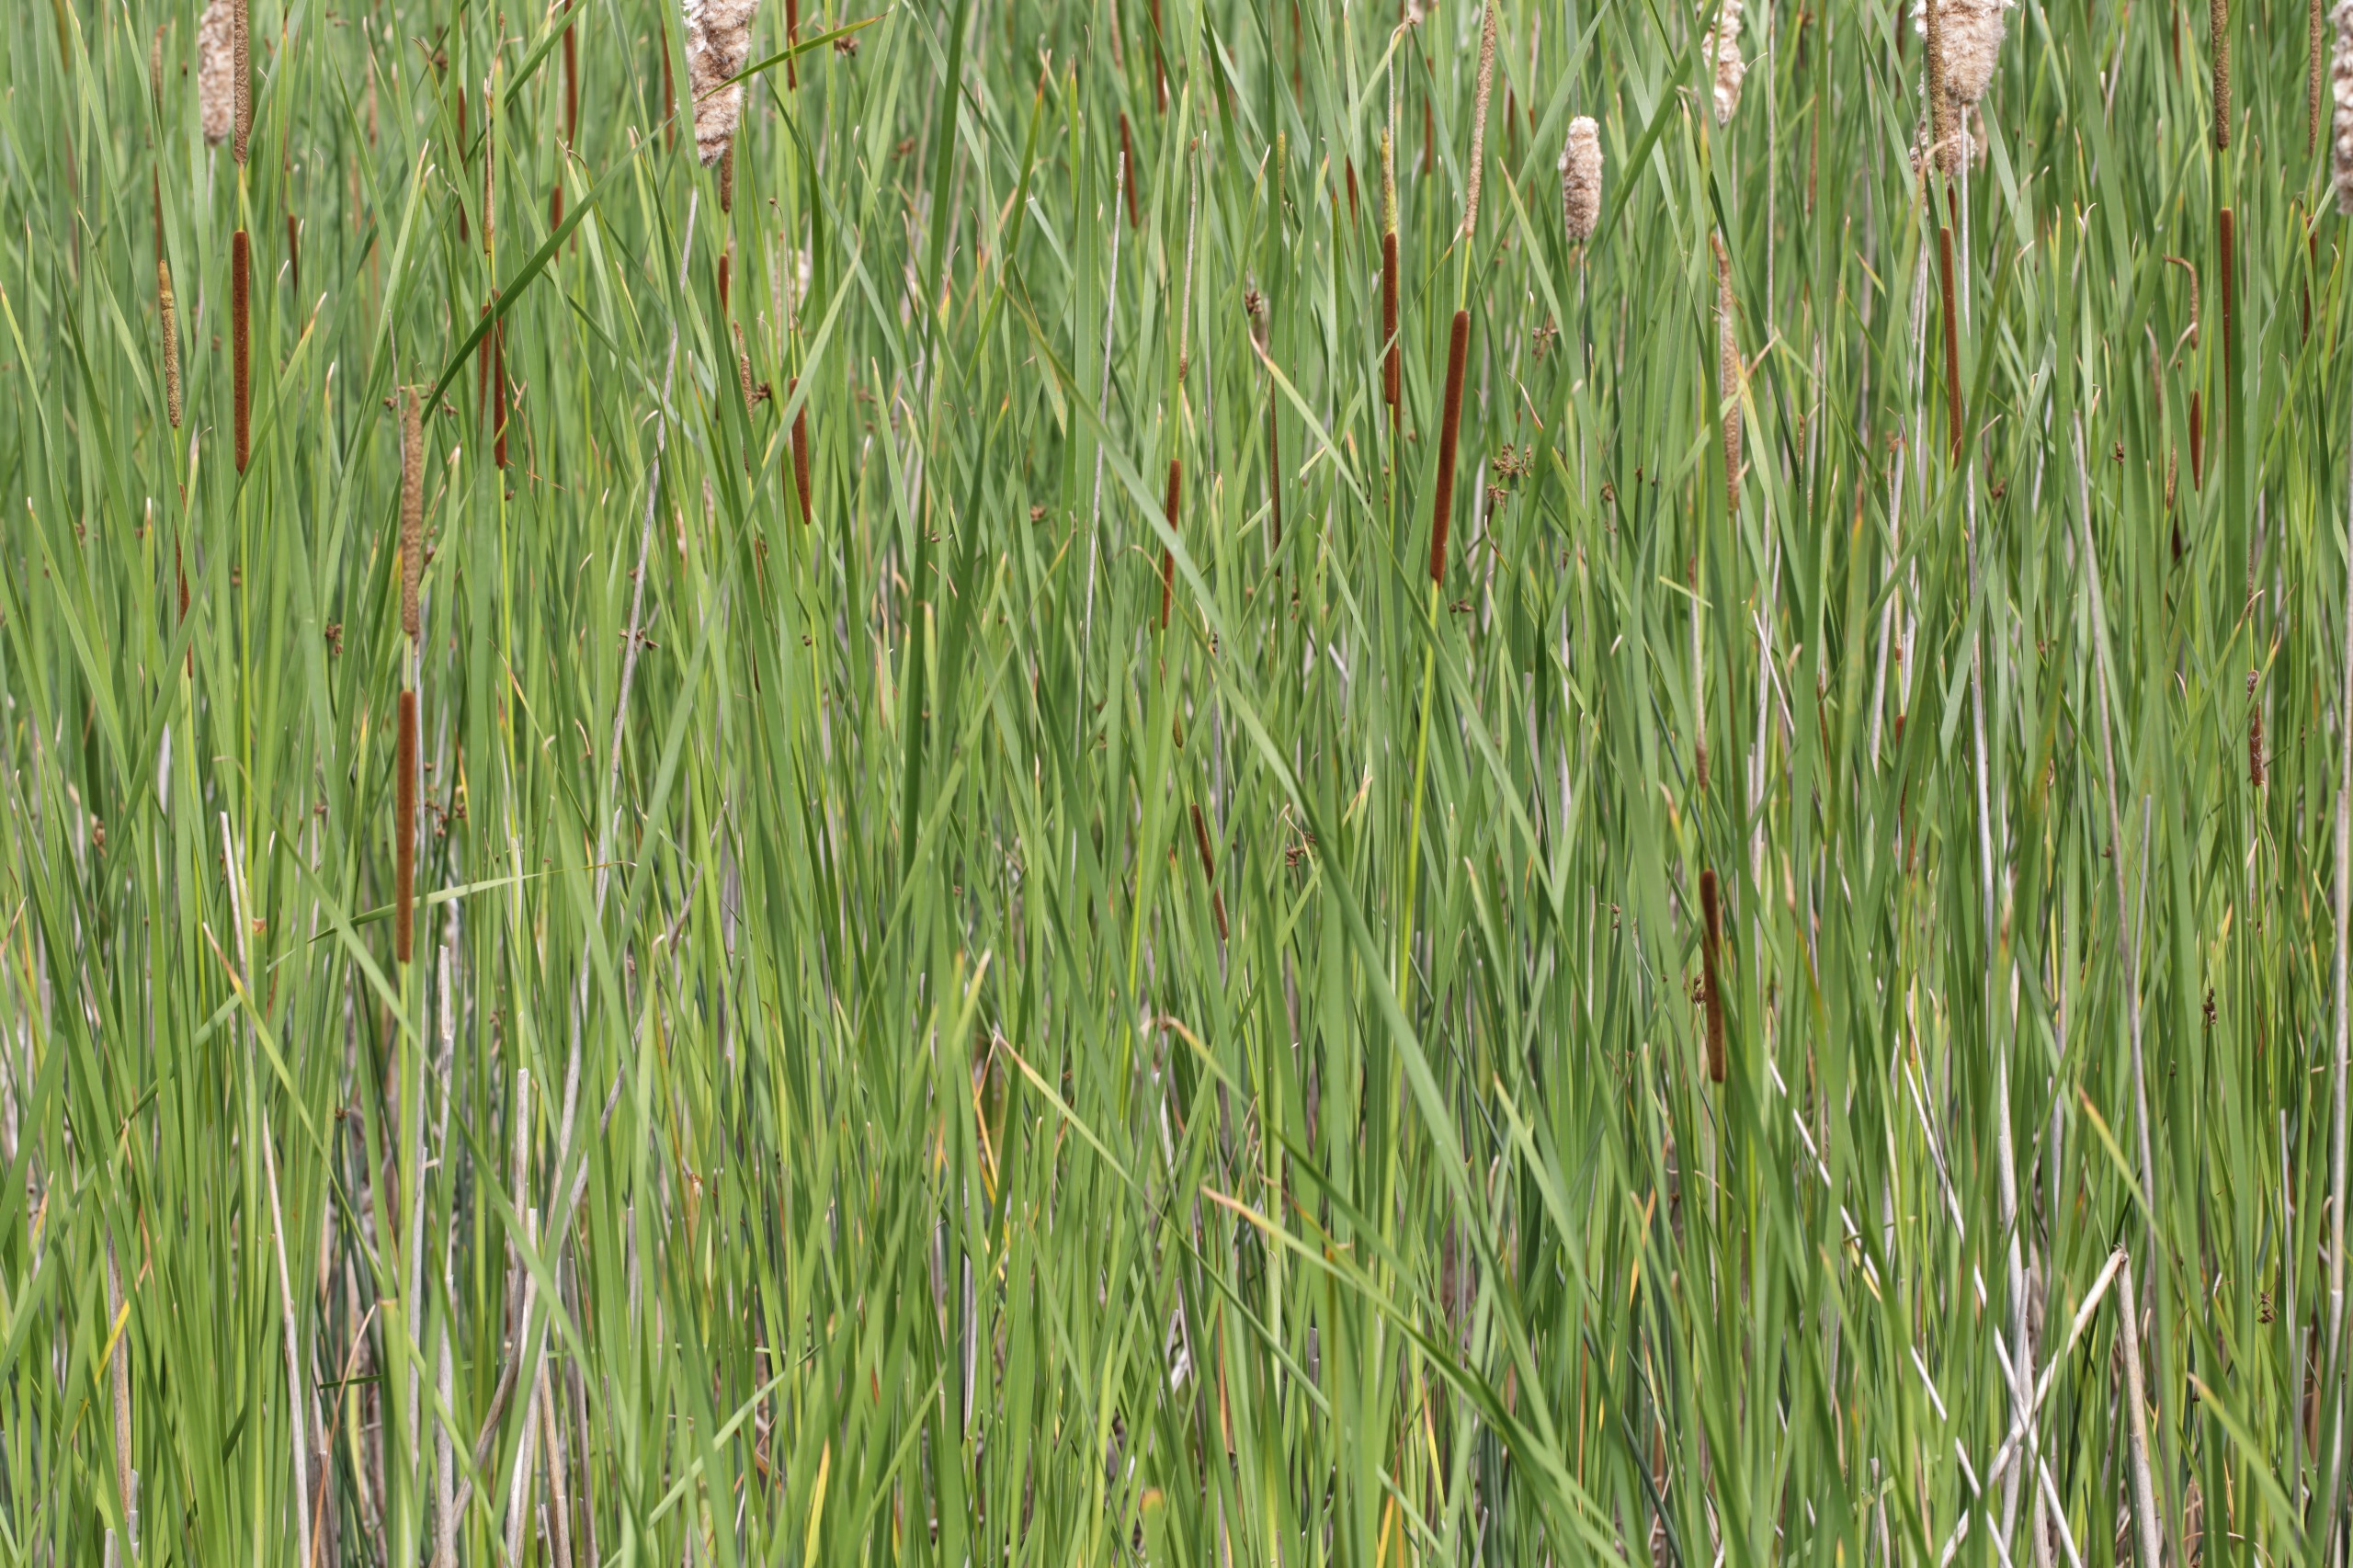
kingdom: Plantae
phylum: Tracheophyta
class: Liliopsida
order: Poales
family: Typhaceae
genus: Typha
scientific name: Typha angustifolia
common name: Smalbladet dunhammer
